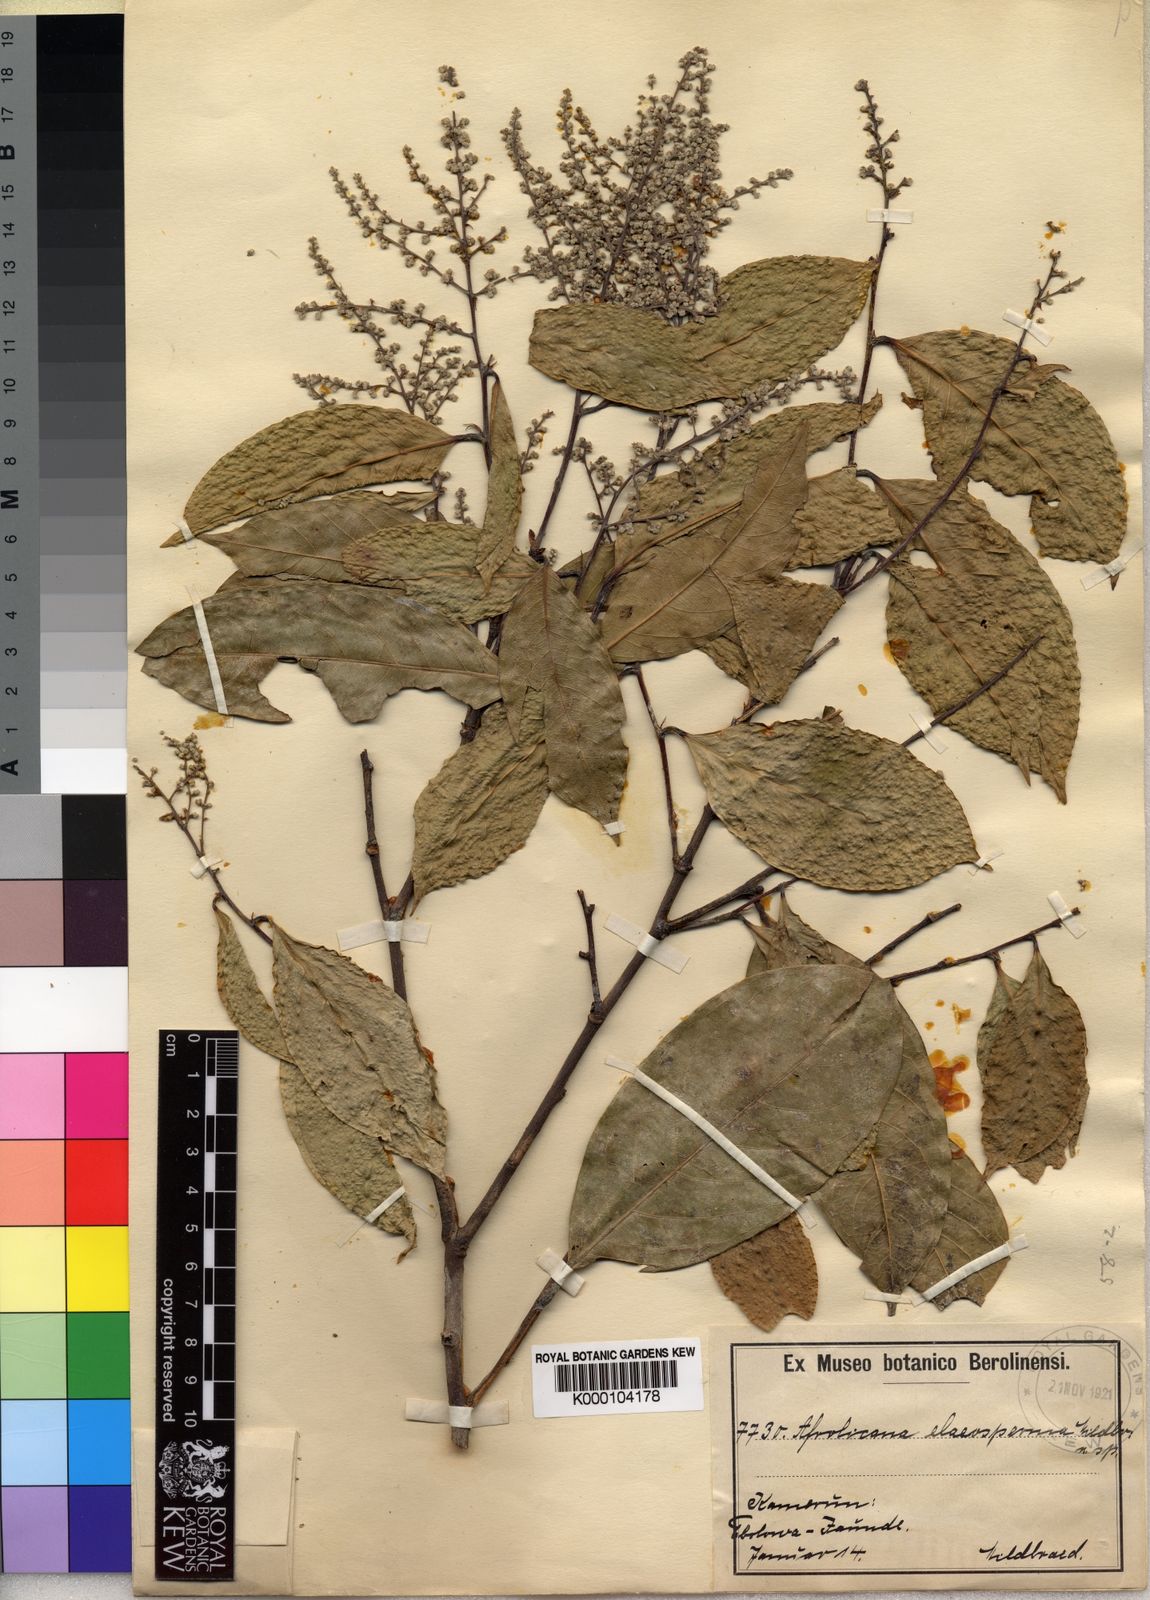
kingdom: Plantae
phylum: Tracheophyta
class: Magnoliopsida
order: Malpighiales
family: Chrysobalanaceae
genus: Afrolicania
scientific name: Afrolicania elaeosperma
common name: Nikko
